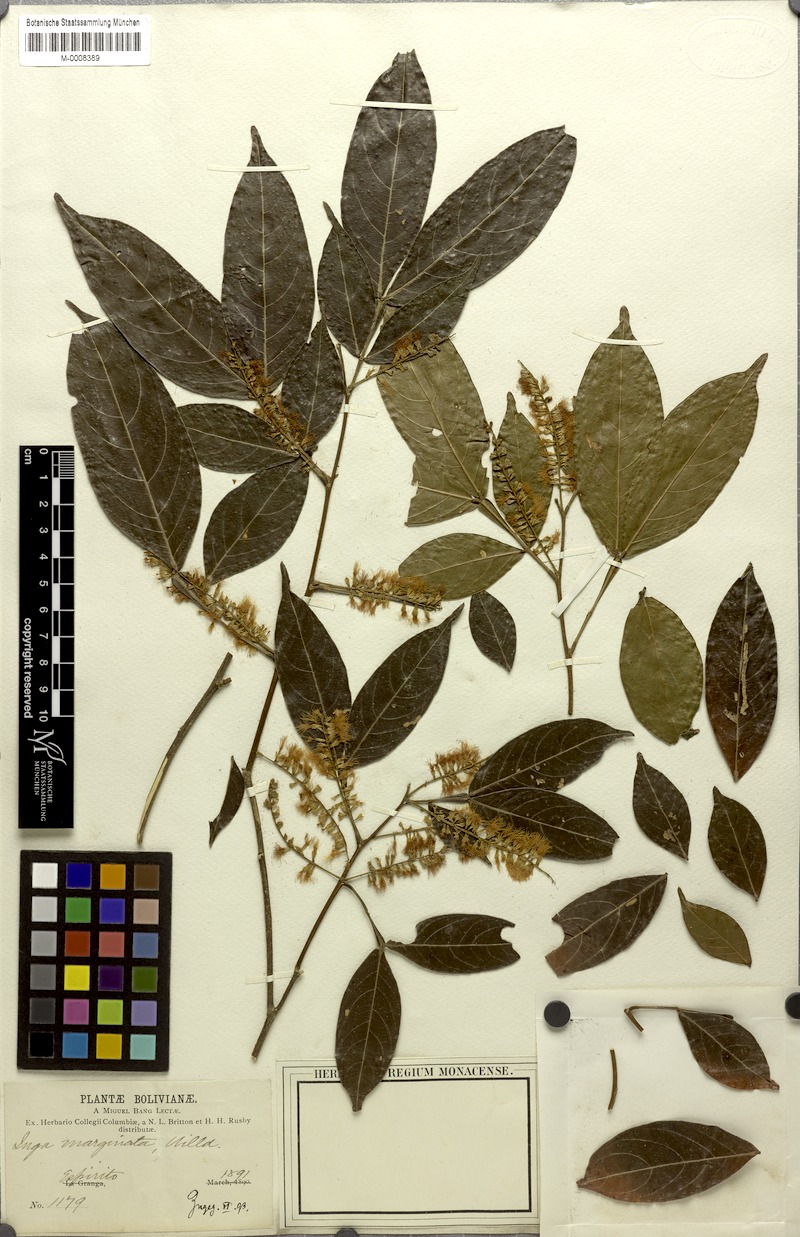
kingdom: Plantae
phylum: Tracheophyta
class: Magnoliopsida
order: Fabales
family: Fabaceae
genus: Inga
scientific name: Inga marginata
